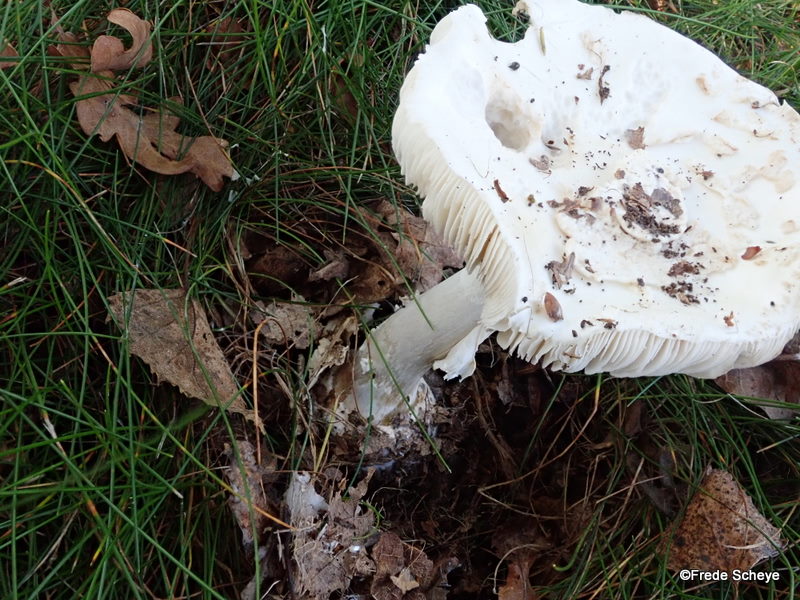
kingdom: Fungi
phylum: Basidiomycota
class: Agaricomycetes
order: Agaricales
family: Amanitaceae
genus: Amanita
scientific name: Amanita citrina
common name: kugleknoldet fluesvamp
